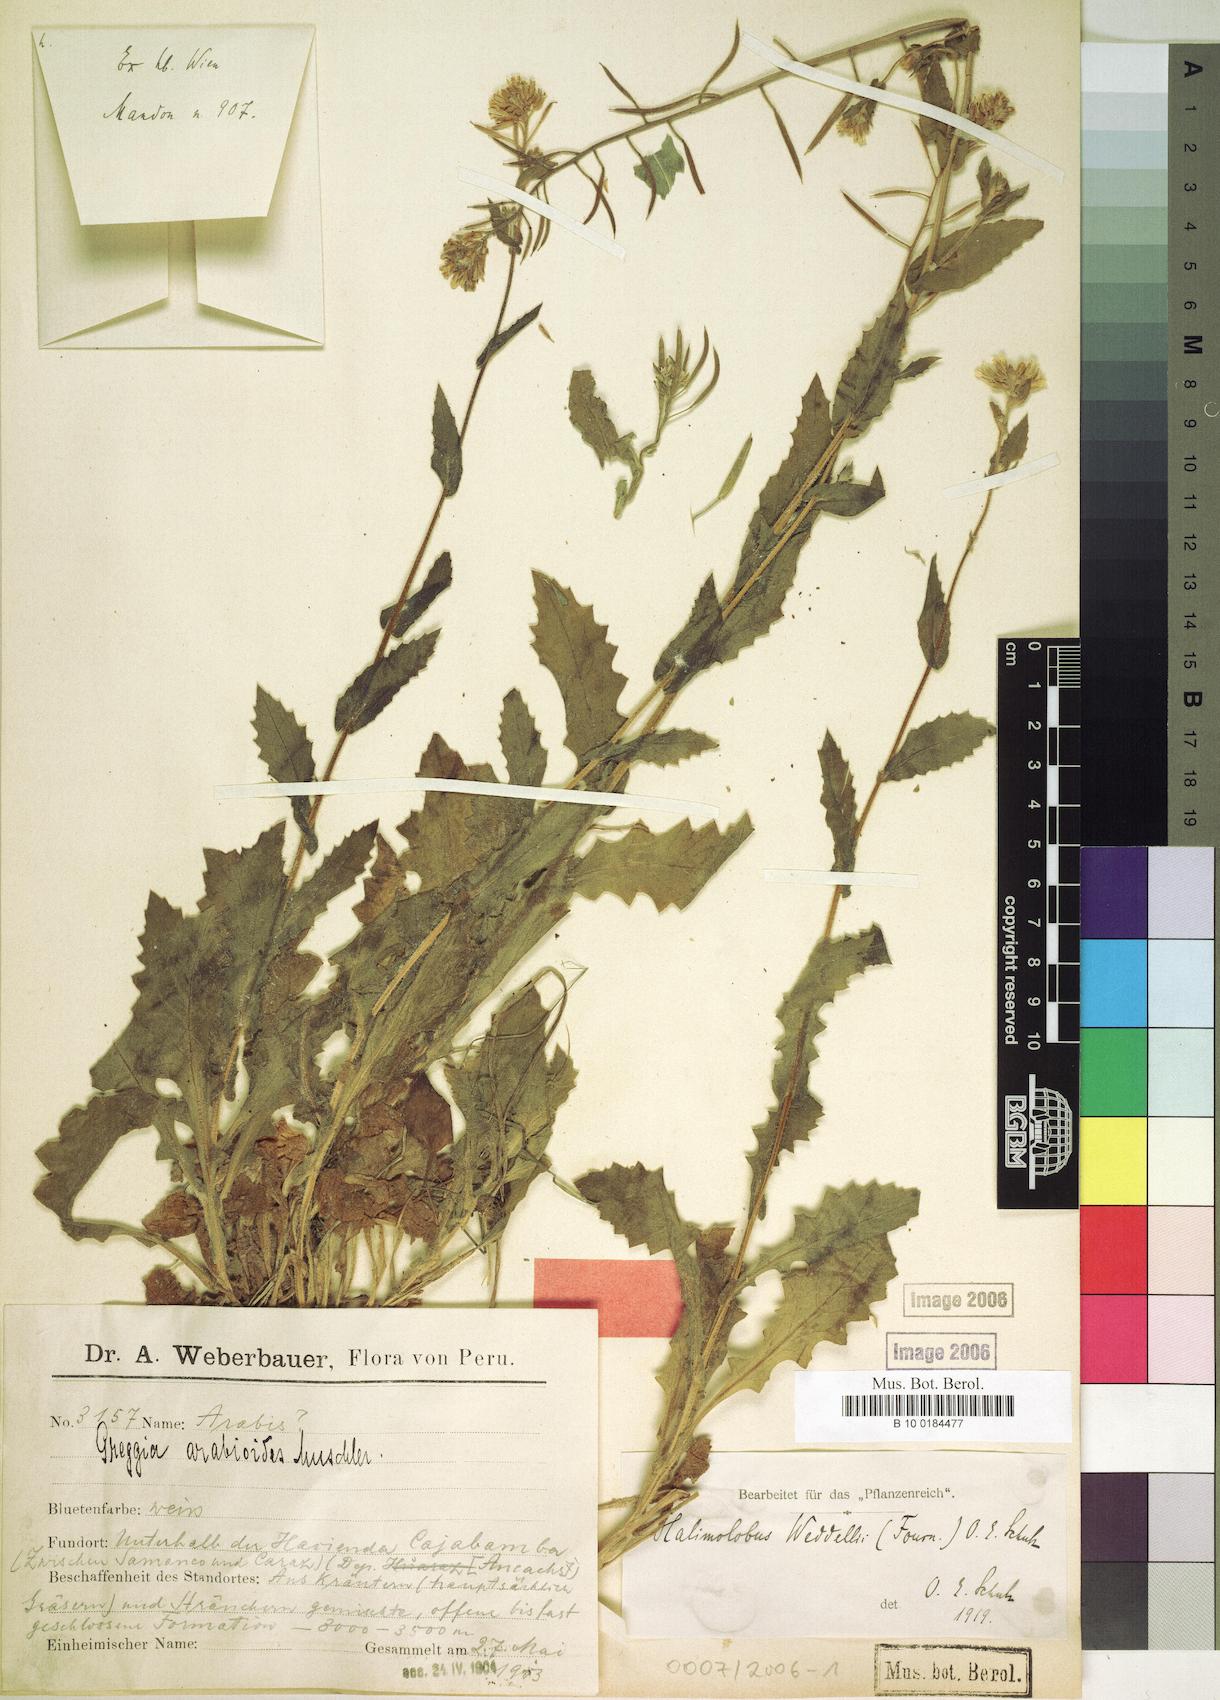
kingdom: Plantae
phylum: Tracheophyta
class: Magnoliopsida
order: Brassicales
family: Brassicaceae
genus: Exhalimolobos
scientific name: Exhalimolobos arabioides
